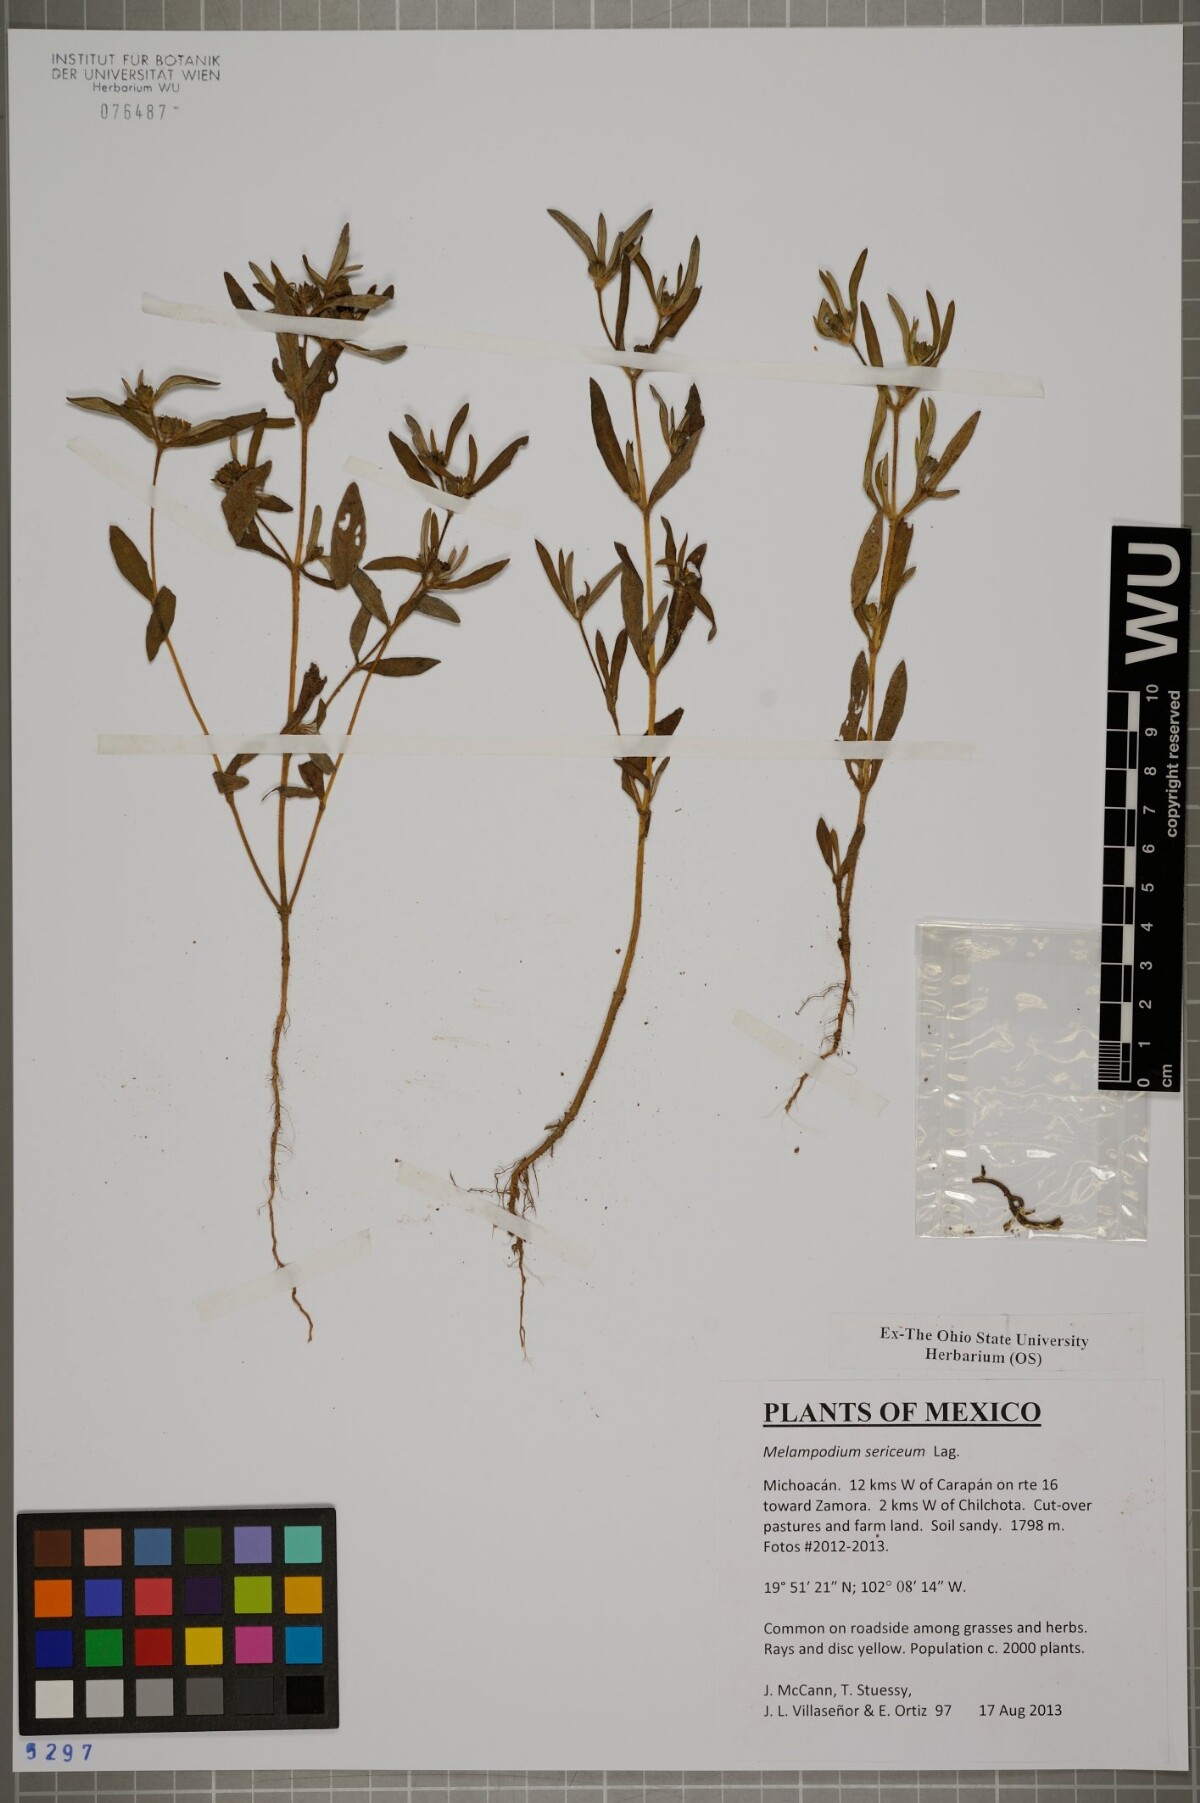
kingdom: Plantae
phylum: Tracheophyta
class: Magnoliopsida
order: Asterales
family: Asteraceae
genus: Melampodium
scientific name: Melampodium sericeum
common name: Rough blackfoot
